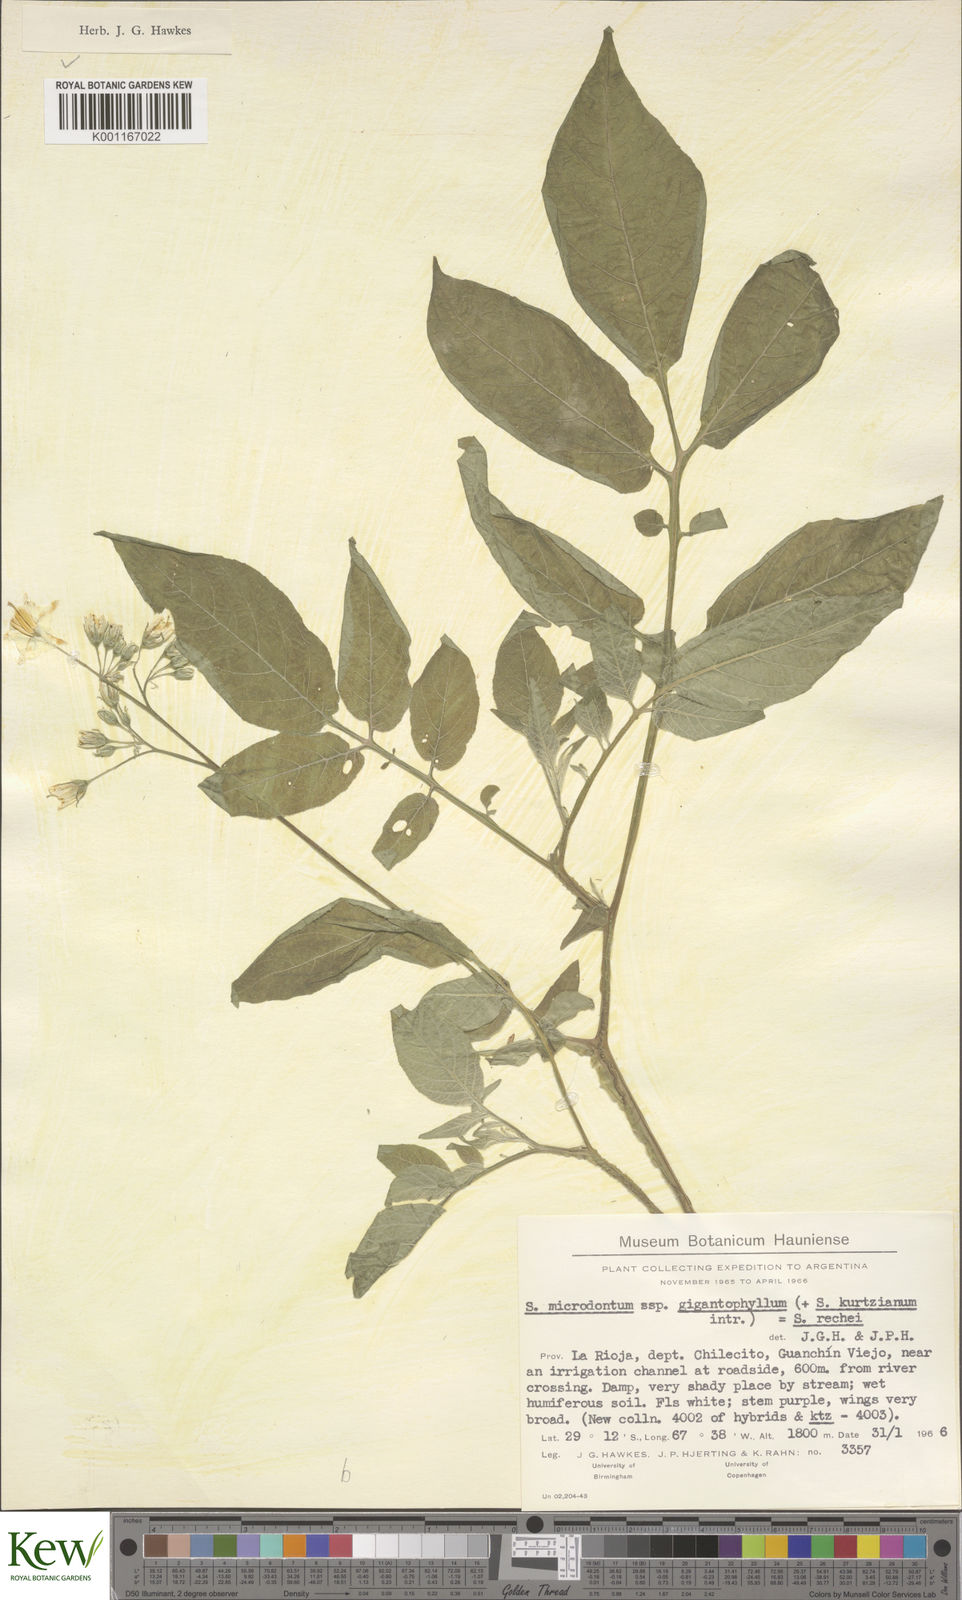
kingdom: Plantae
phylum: Tracheophyta
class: Magnoliopsida
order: Solanales
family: Solanaceae
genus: Solanum
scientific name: Solanum rechei
